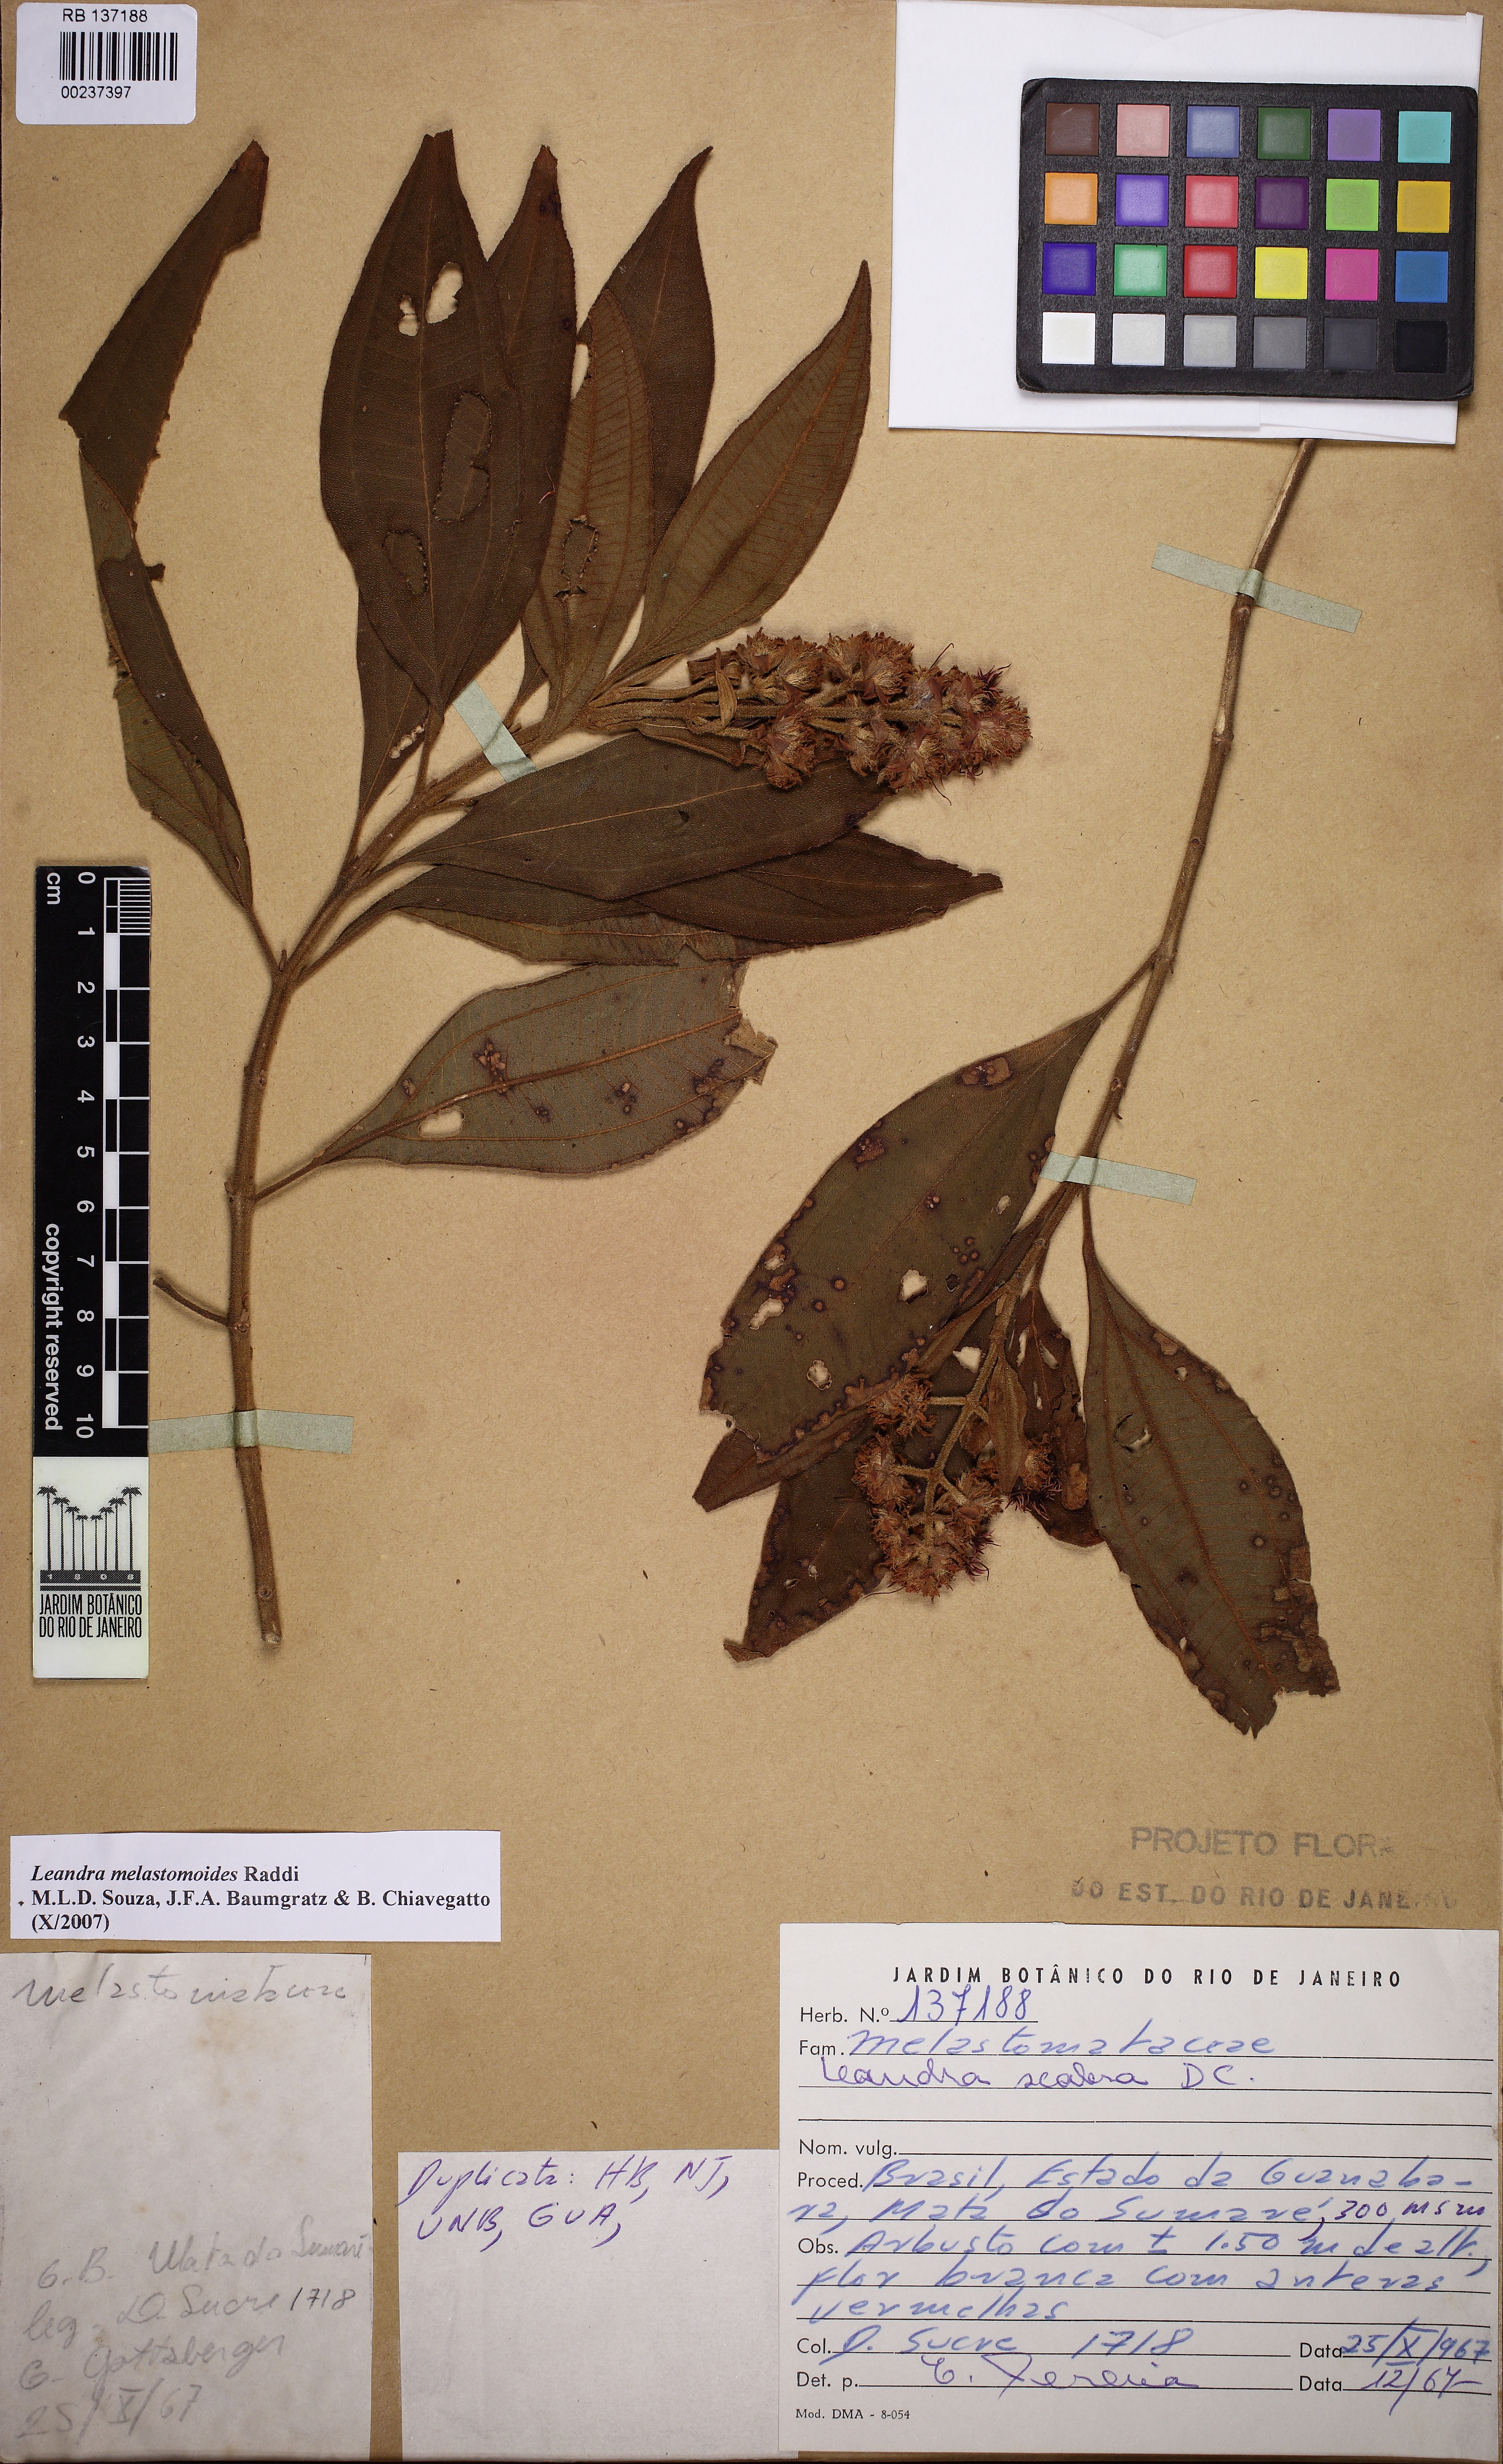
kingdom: Plantae
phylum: Tracheophyta
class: Magnoliopsida
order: Myrtales
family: Melastomataceae
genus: Miconia
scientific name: Miconia melastomoides
